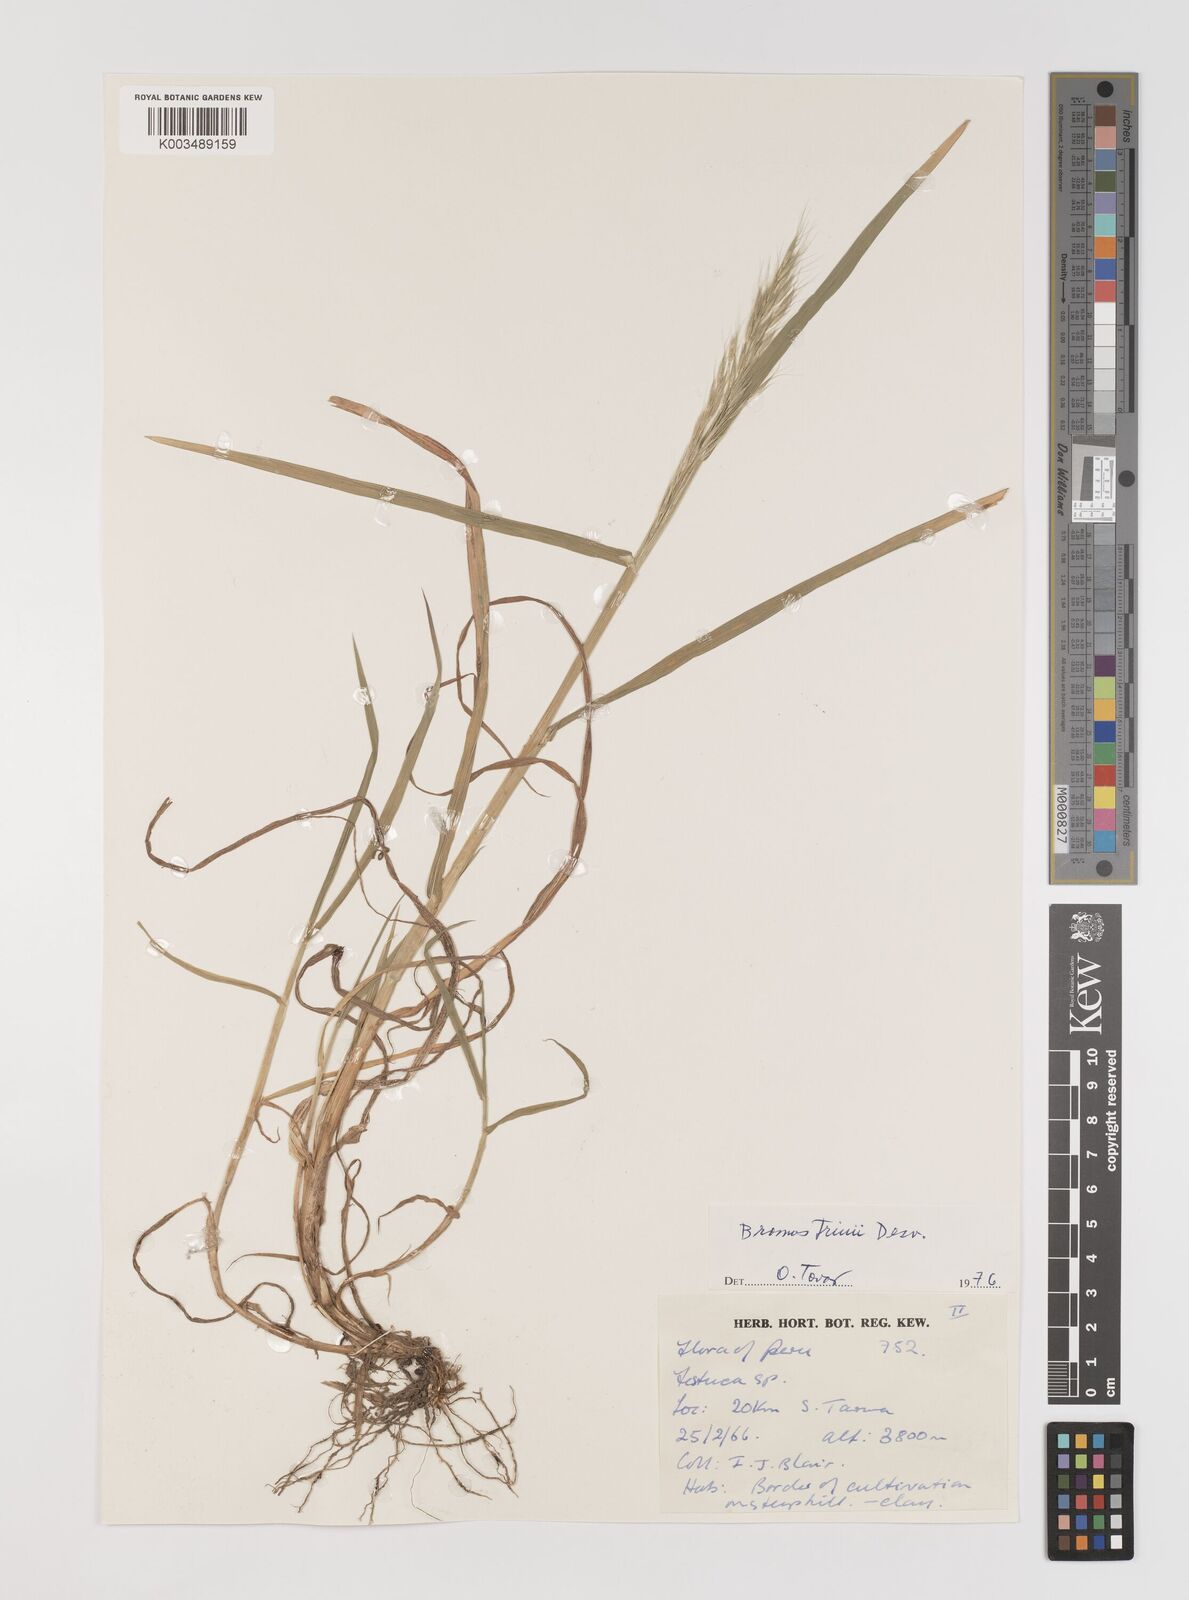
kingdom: Plantae
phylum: Tracheophyta
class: Liliopsida
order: Poales
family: Poaceae
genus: Bromus
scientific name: Bromus berteroanus
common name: Chilean chess
